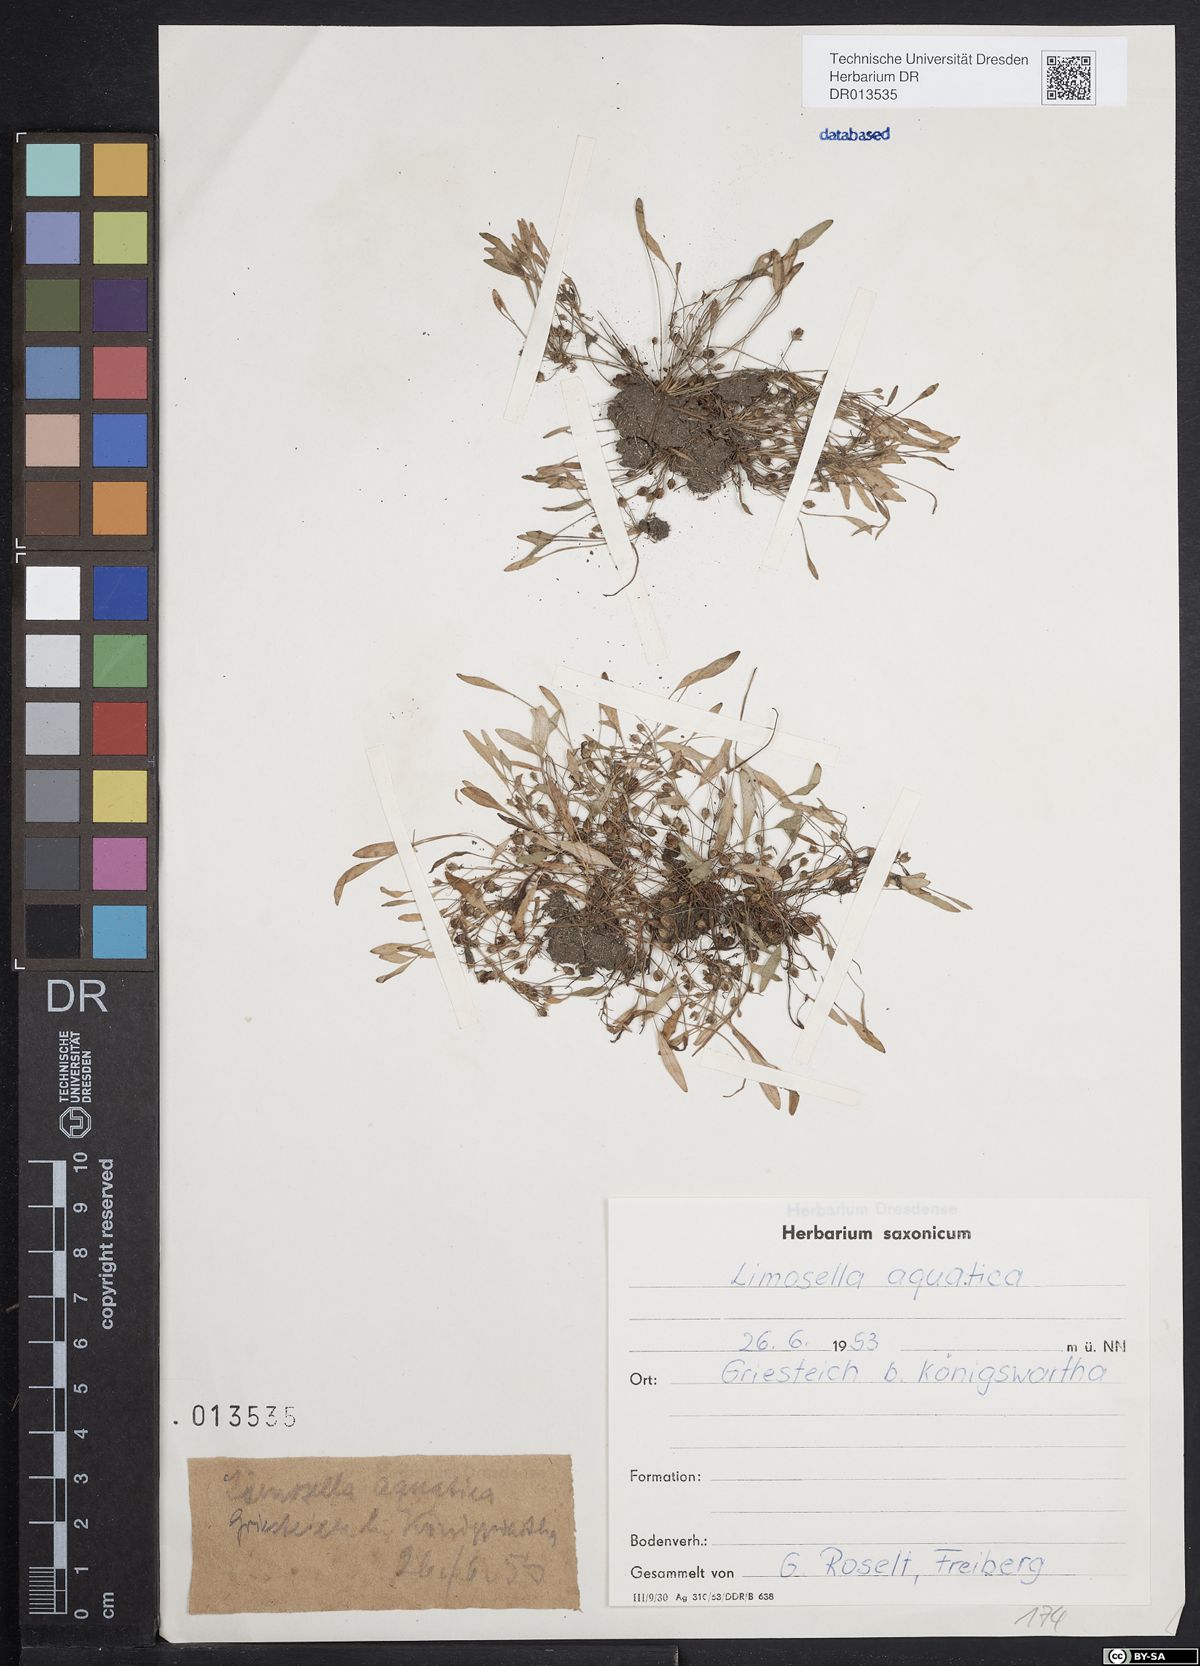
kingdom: Plantae
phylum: Tracheophyta
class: Magnoliopsida
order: Lamiales
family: Scrophulariaceae
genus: Limosella
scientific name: Limosella aquatica
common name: Mudwort
